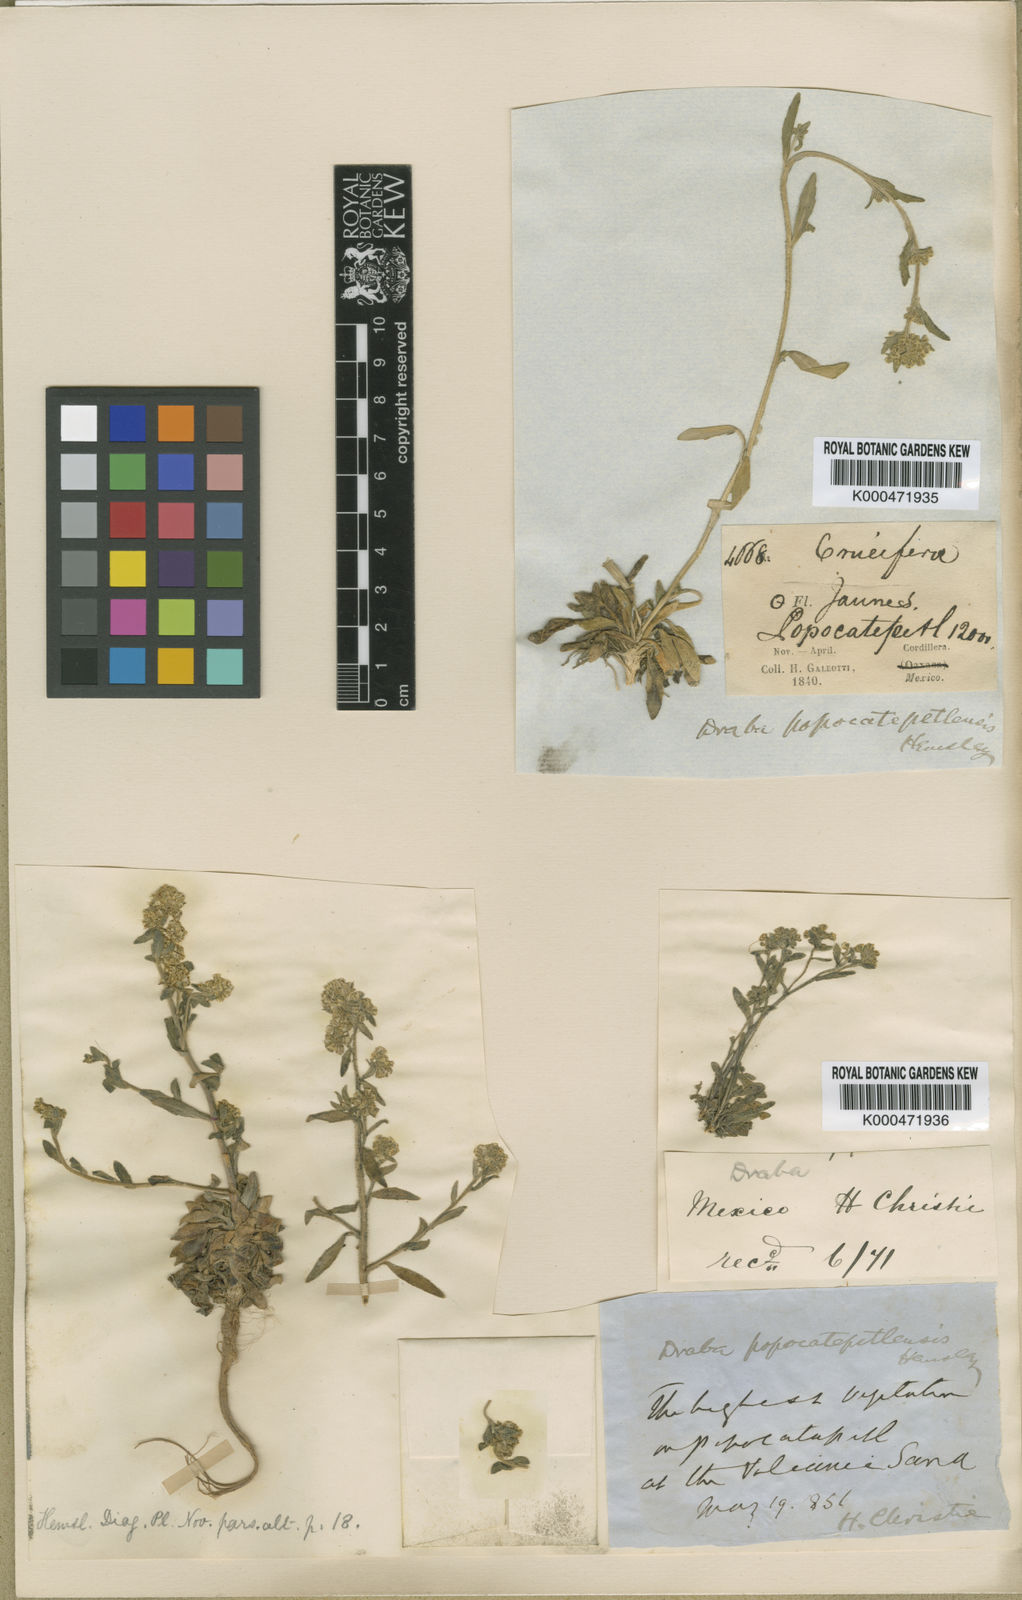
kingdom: Plantae
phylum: Tracheophyta
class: Magnoliopsida
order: Brassicales
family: Brassicaceae
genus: Draba
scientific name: Draba jorullensis
